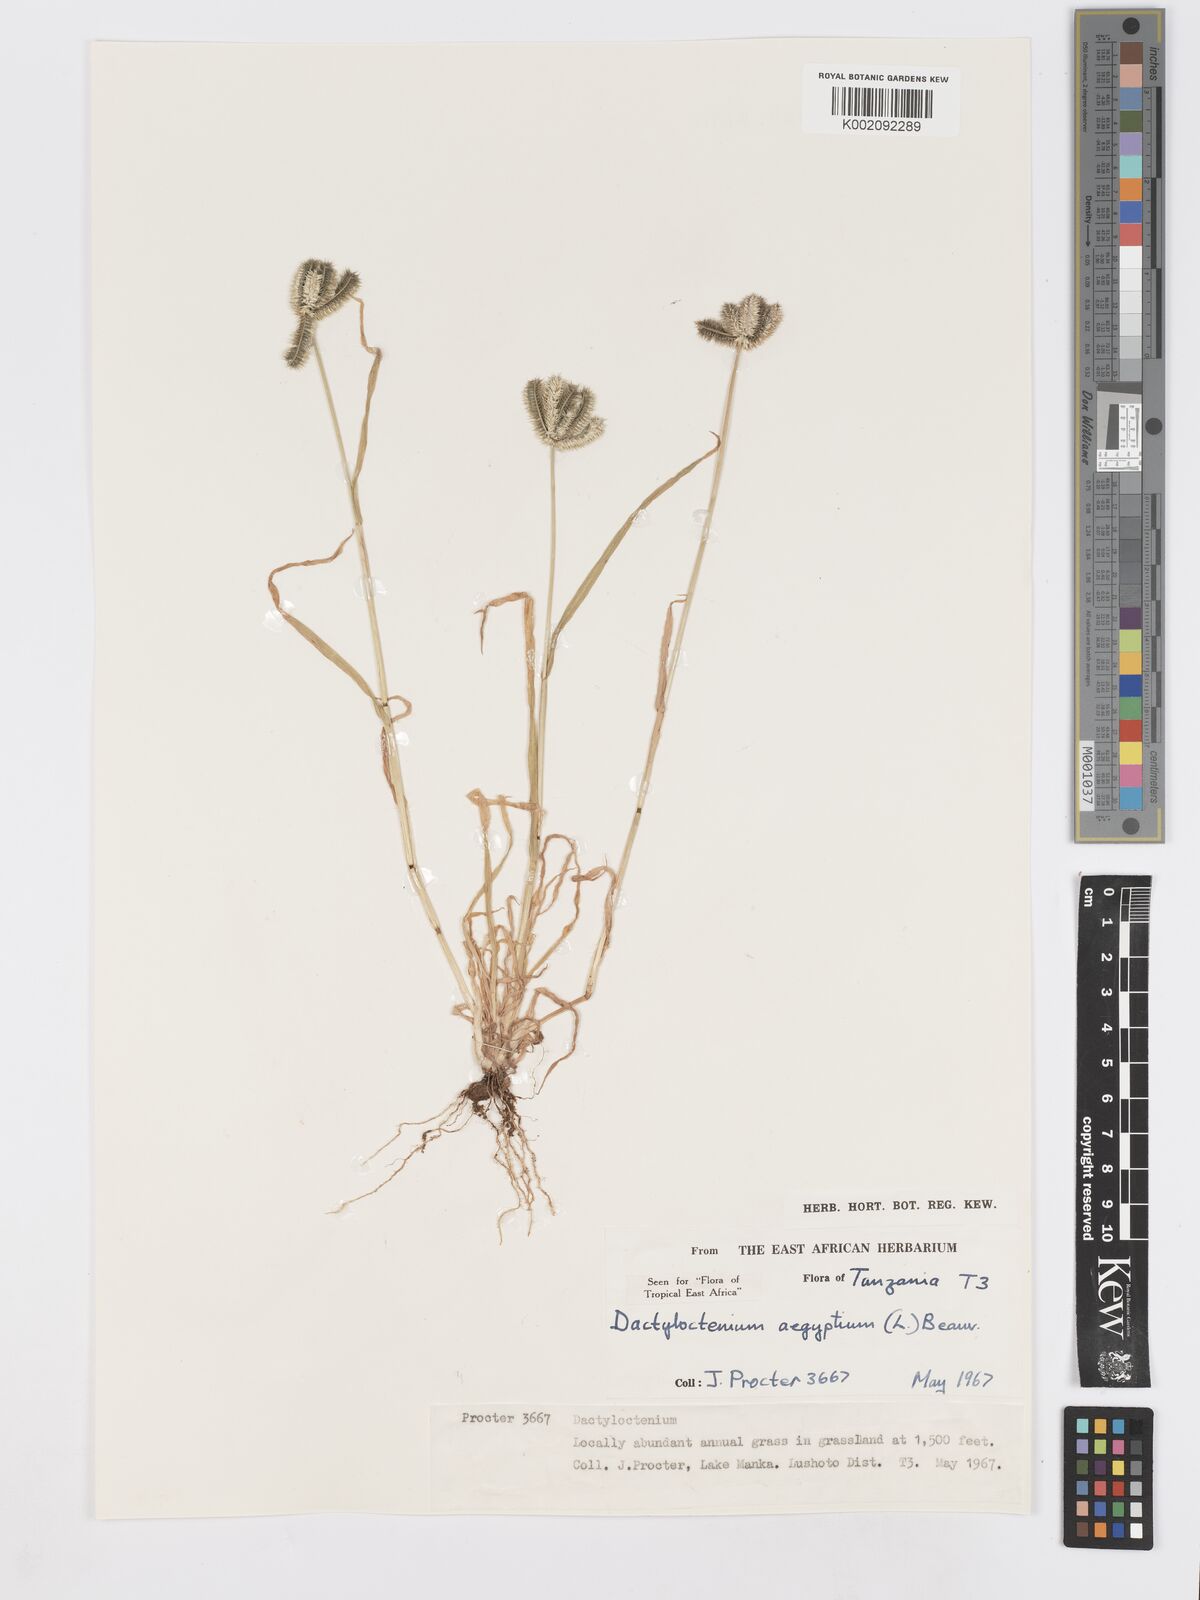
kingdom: Plantae
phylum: Tracheophyta
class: Liliopsida
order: Poales
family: Poaceae
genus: Dactyloctenium
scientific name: Dactyloctenium aegyptium
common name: Egyptian grass
